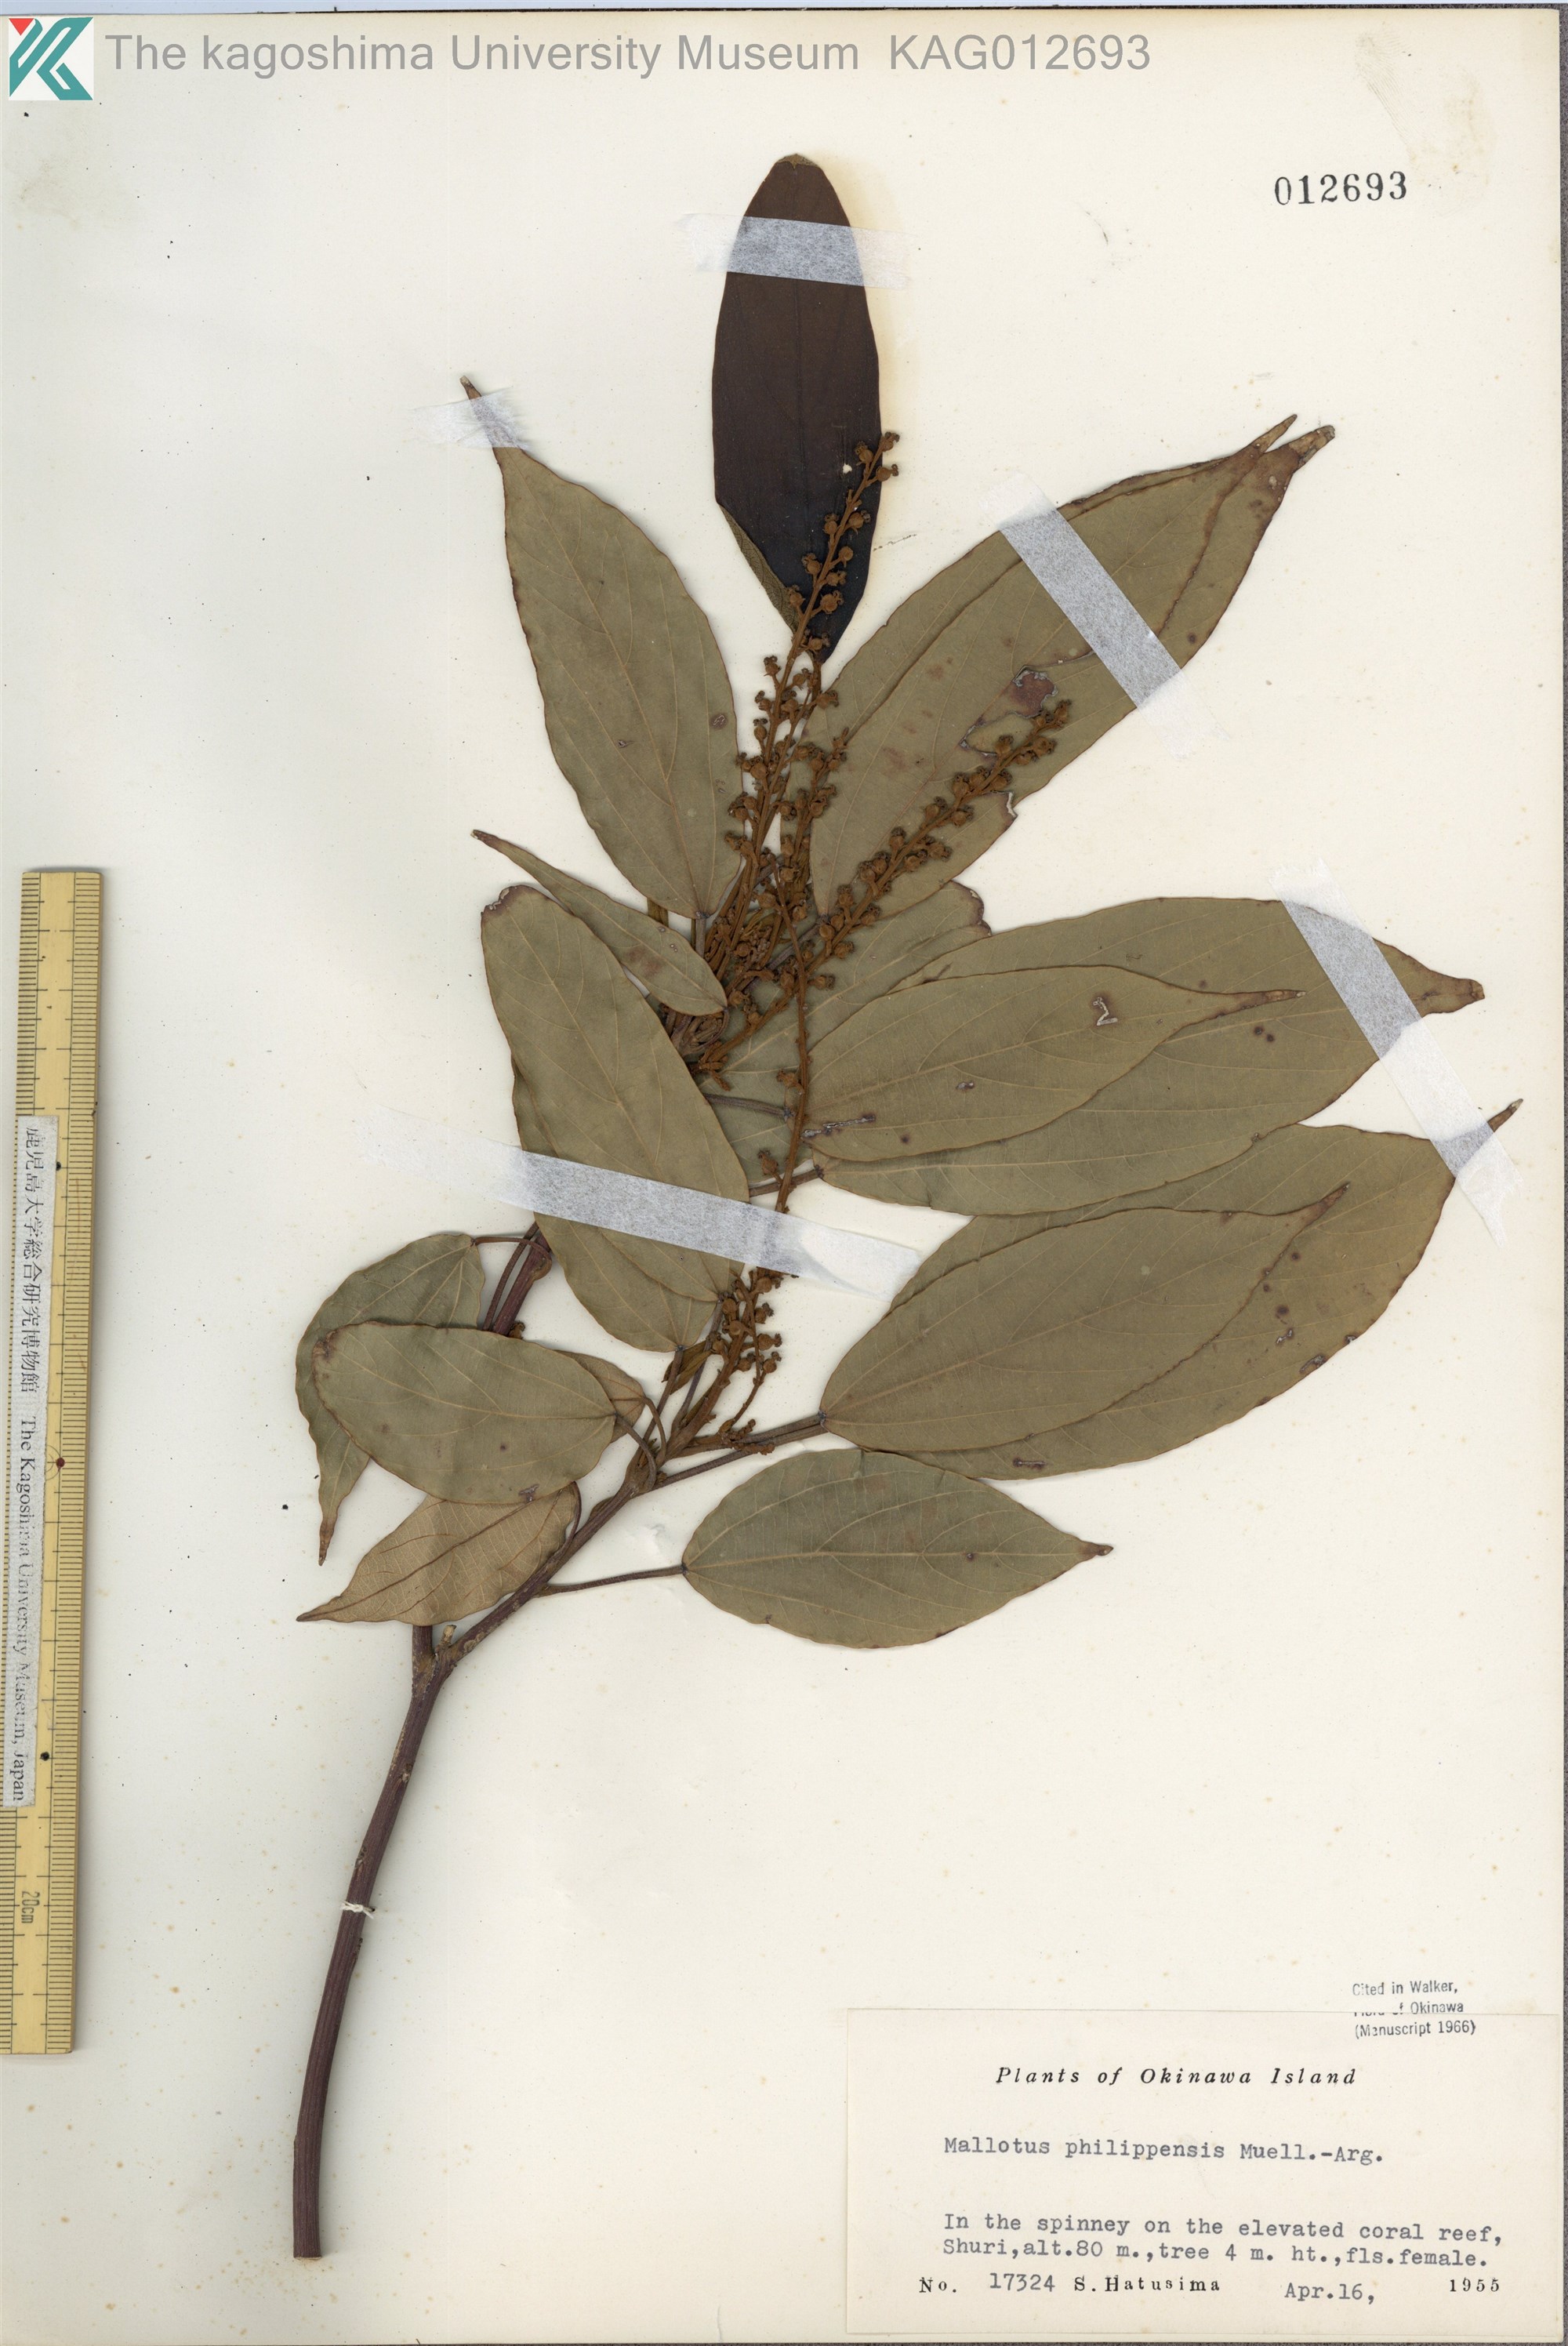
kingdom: Plantae
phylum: Tracheophyta
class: Magnoliopsida
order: Malpighiales
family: Euphorbiaceae
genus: Mallotus
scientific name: Mallotus philippensis
